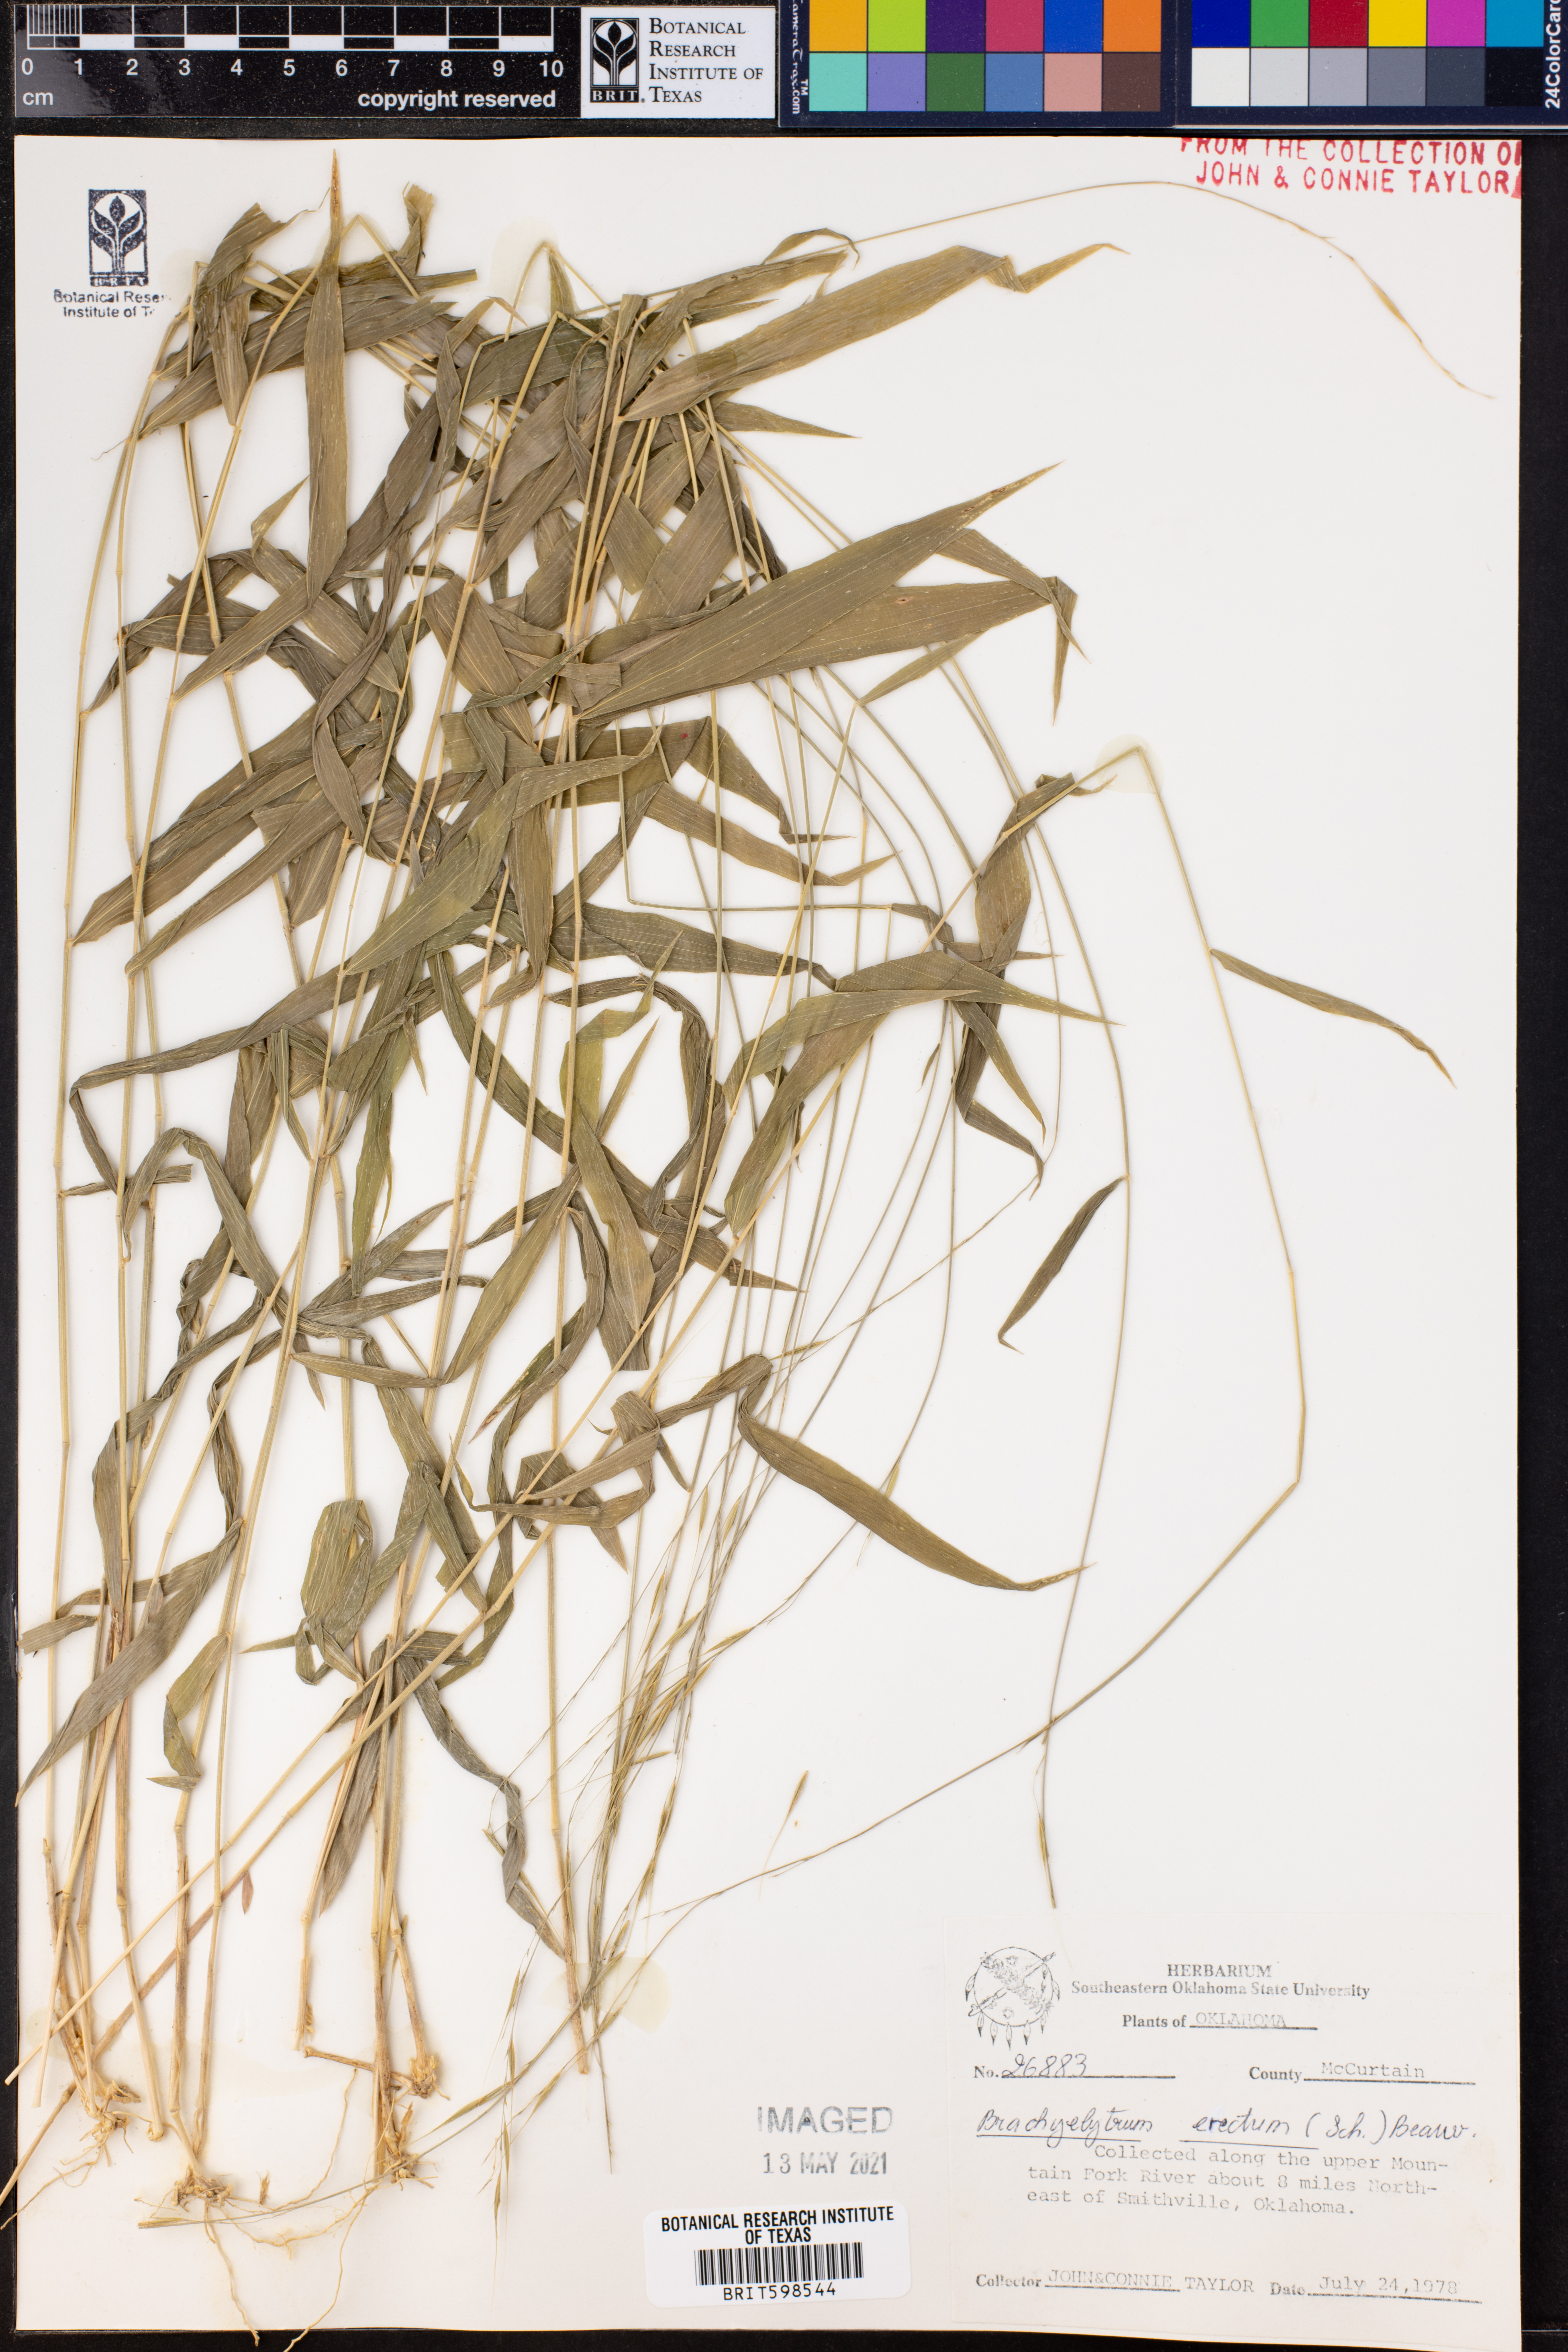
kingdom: Plantae
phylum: Tracheophyta
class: Liliopsida
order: Poales
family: Poaceae
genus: Brachyelytrum
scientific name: Brachyelytrum erectum
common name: Bearded shorthusk
